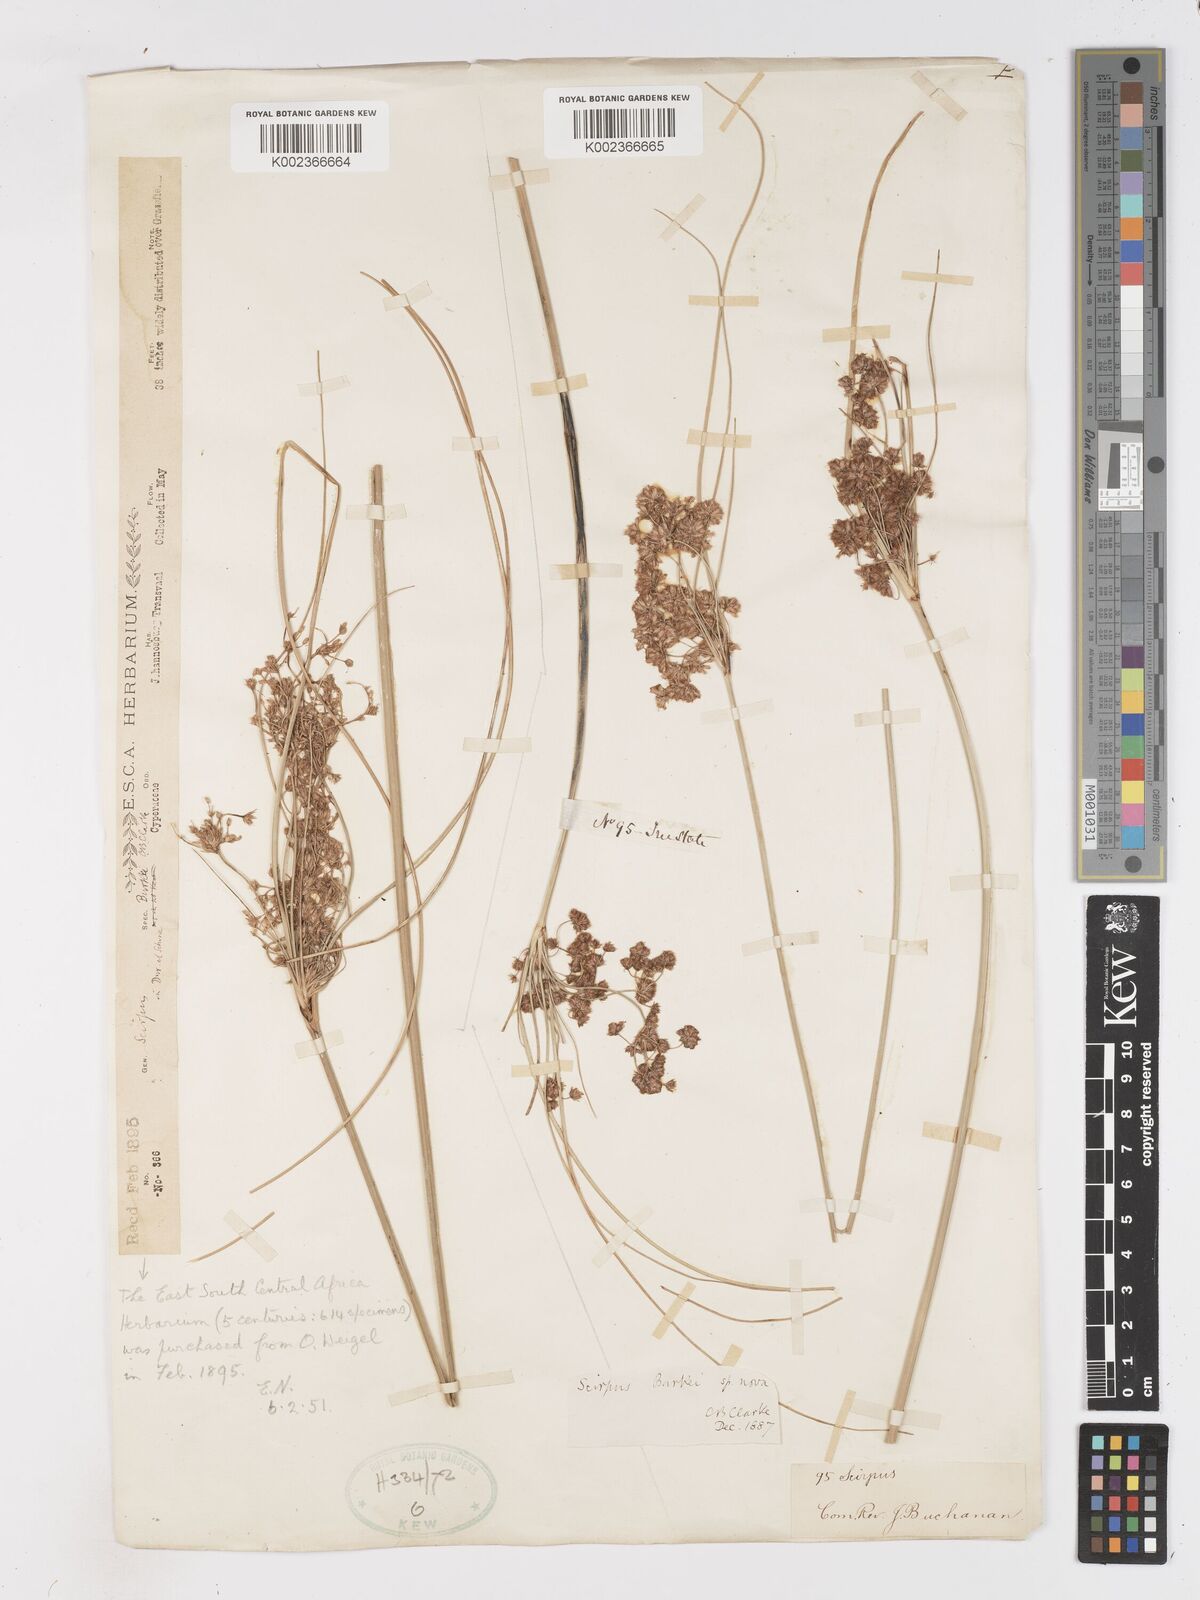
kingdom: Plantae
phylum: Tracheophyta
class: Liliopsida
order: Poales
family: Cyperaceae
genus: Scirpoides
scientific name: Scirpoides burkei
